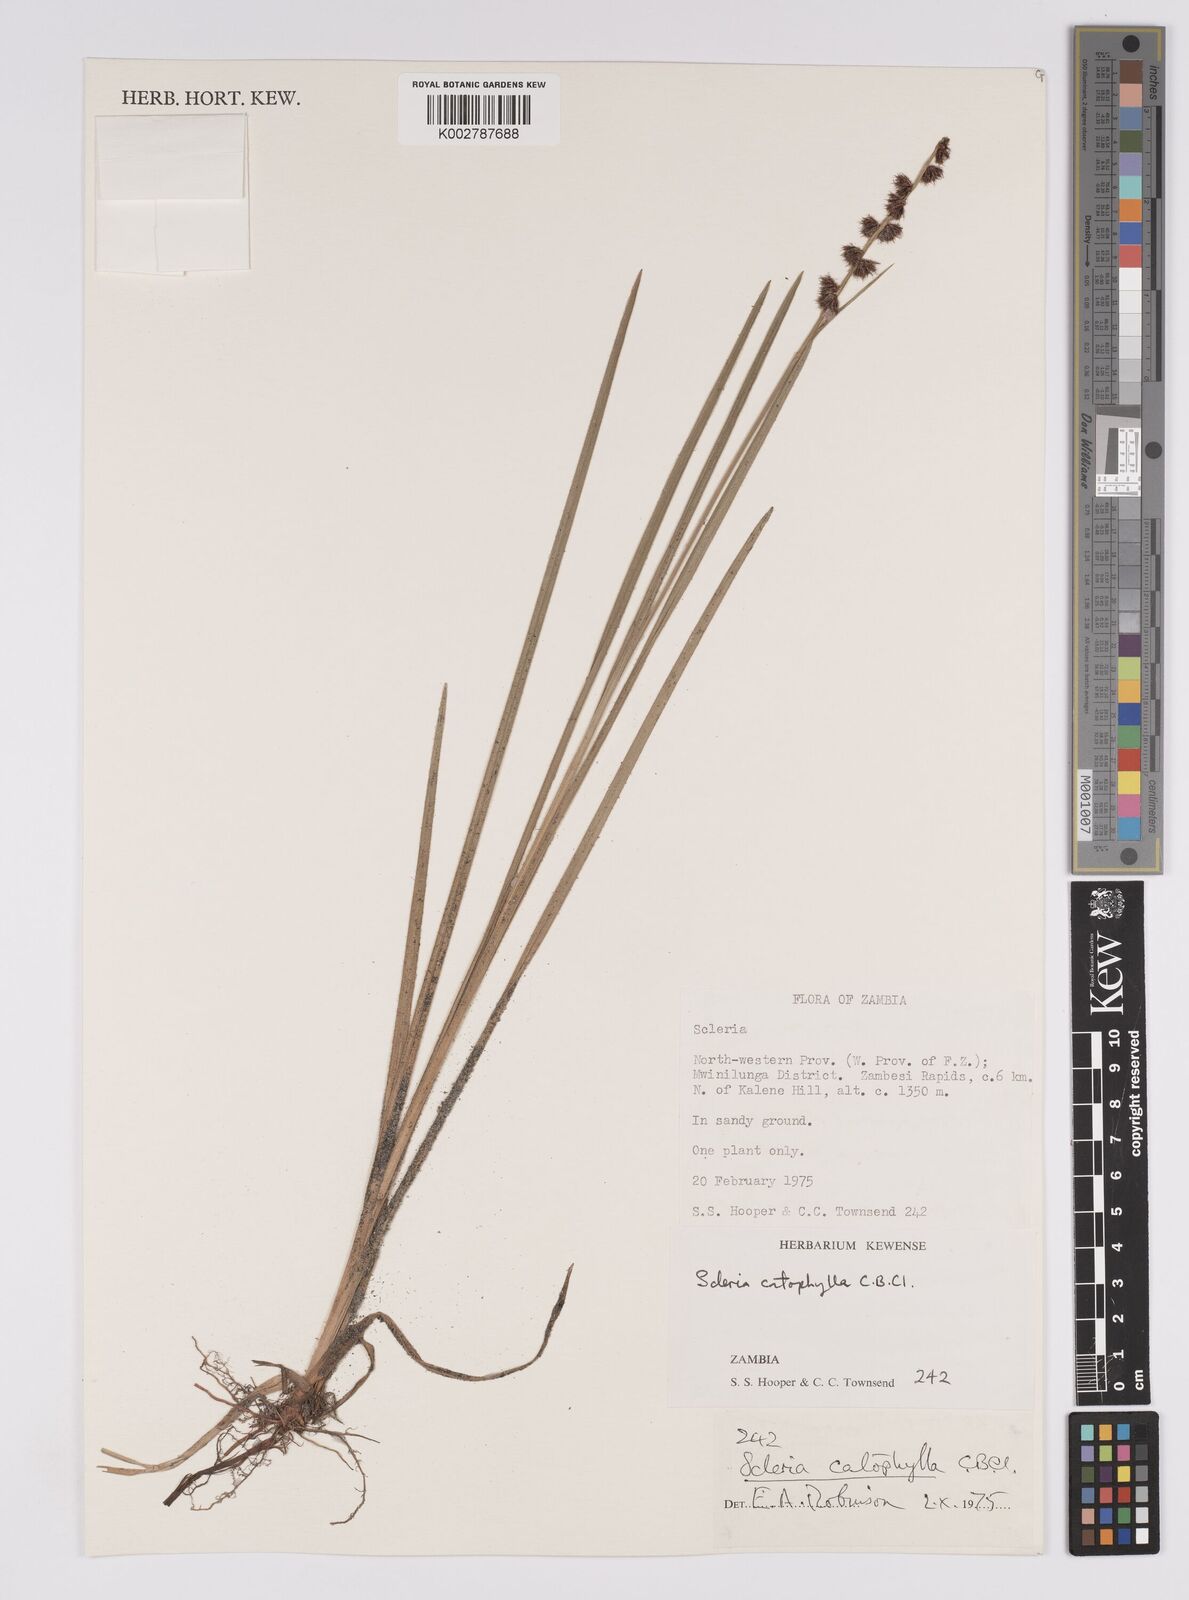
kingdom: Plantae
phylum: Tracheophyta
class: Liliopsida
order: Poales
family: Cyperaceae
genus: Scleria
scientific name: Scleria catophylla
